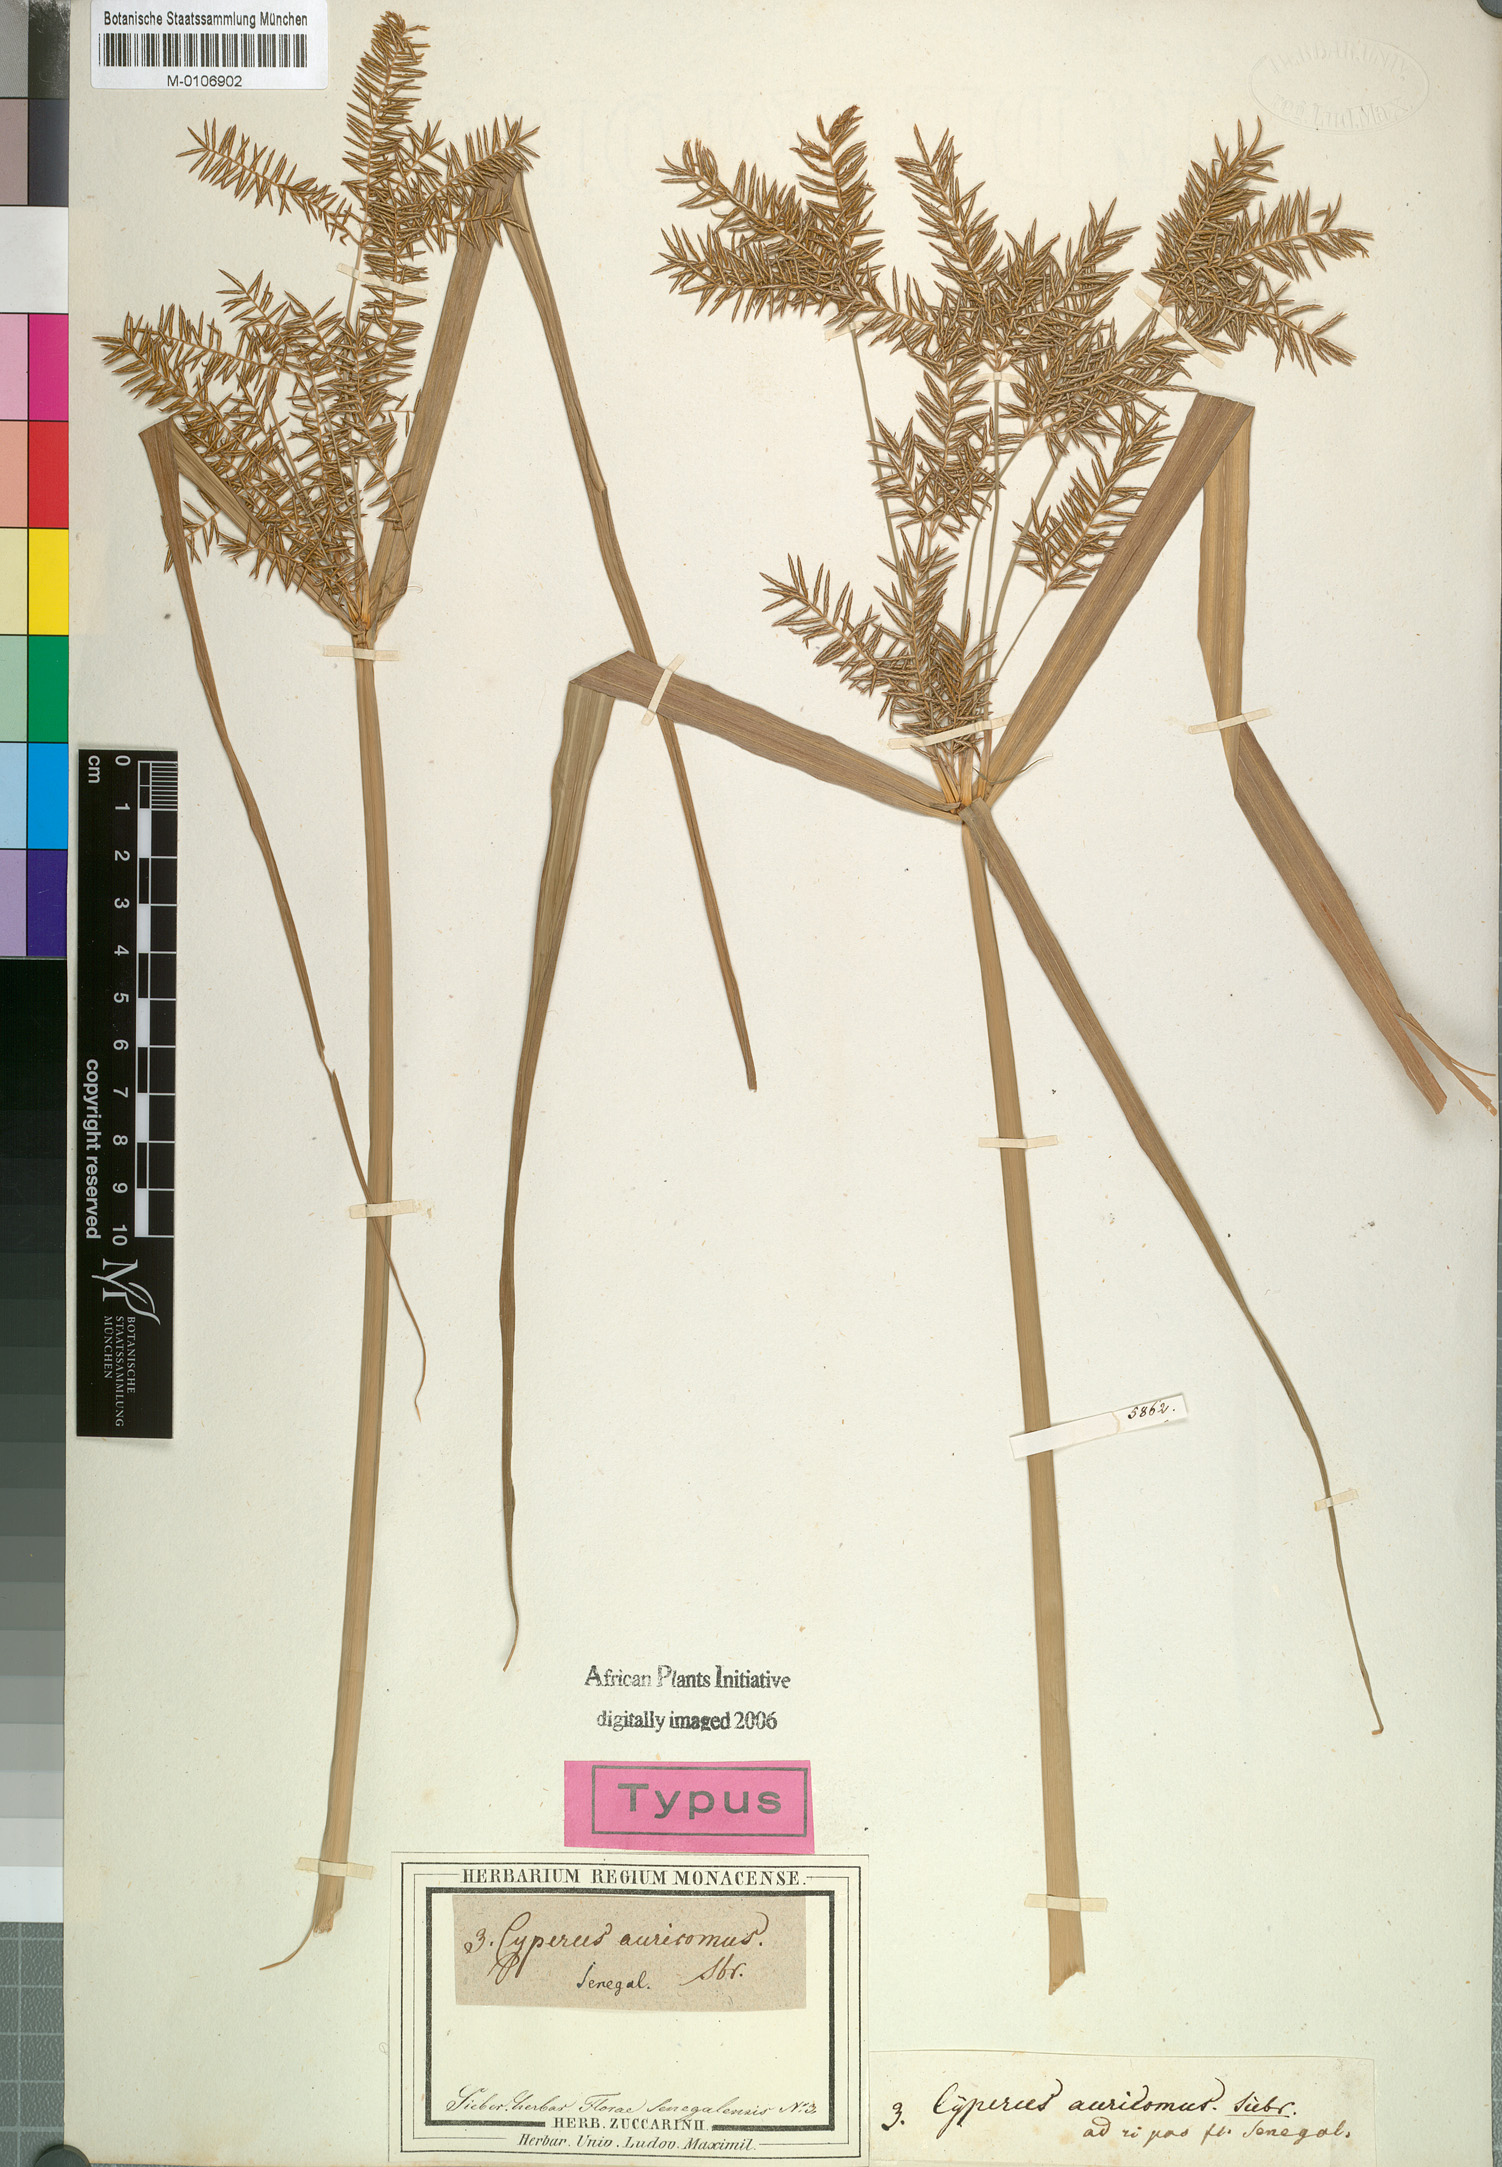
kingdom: Plantae
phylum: Tracheophyta
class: Liliopsida
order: Poales
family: Cyperaceae
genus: Cyperus
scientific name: Cyperus digitatus
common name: Finger flatsedge
